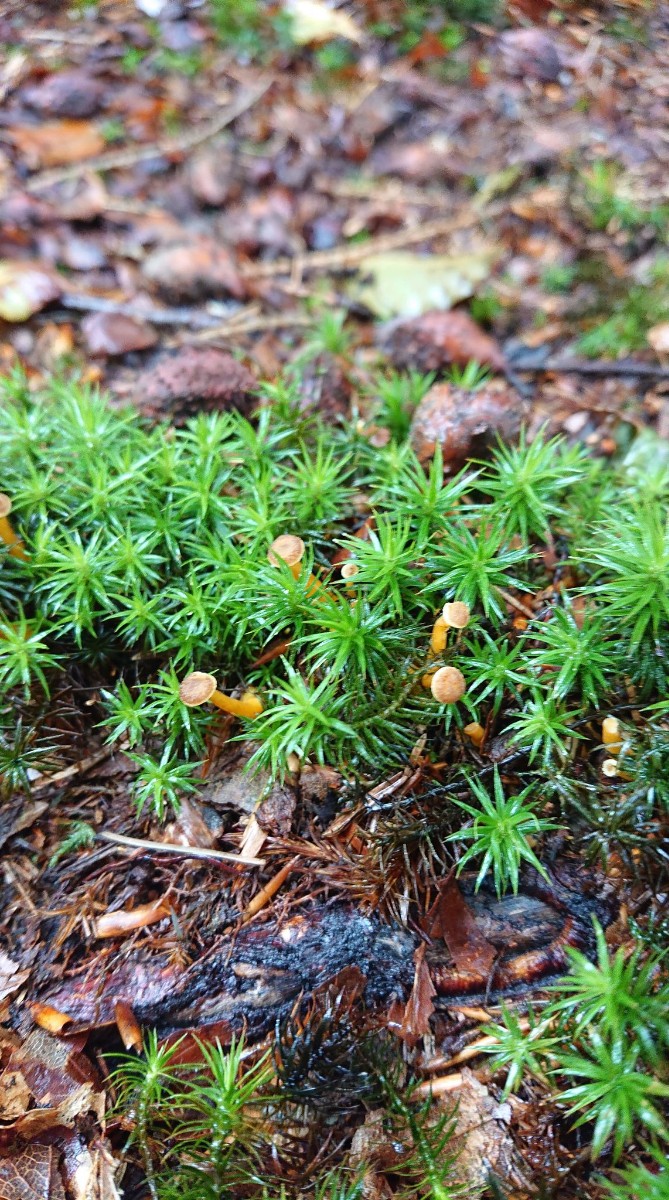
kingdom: Fungi
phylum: Basidiomycota
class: Agaricomycetes
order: Cantharellales
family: Hydnaceae
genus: Craterellus
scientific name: Craterellus tubaeformis
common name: tragt-kantarel
